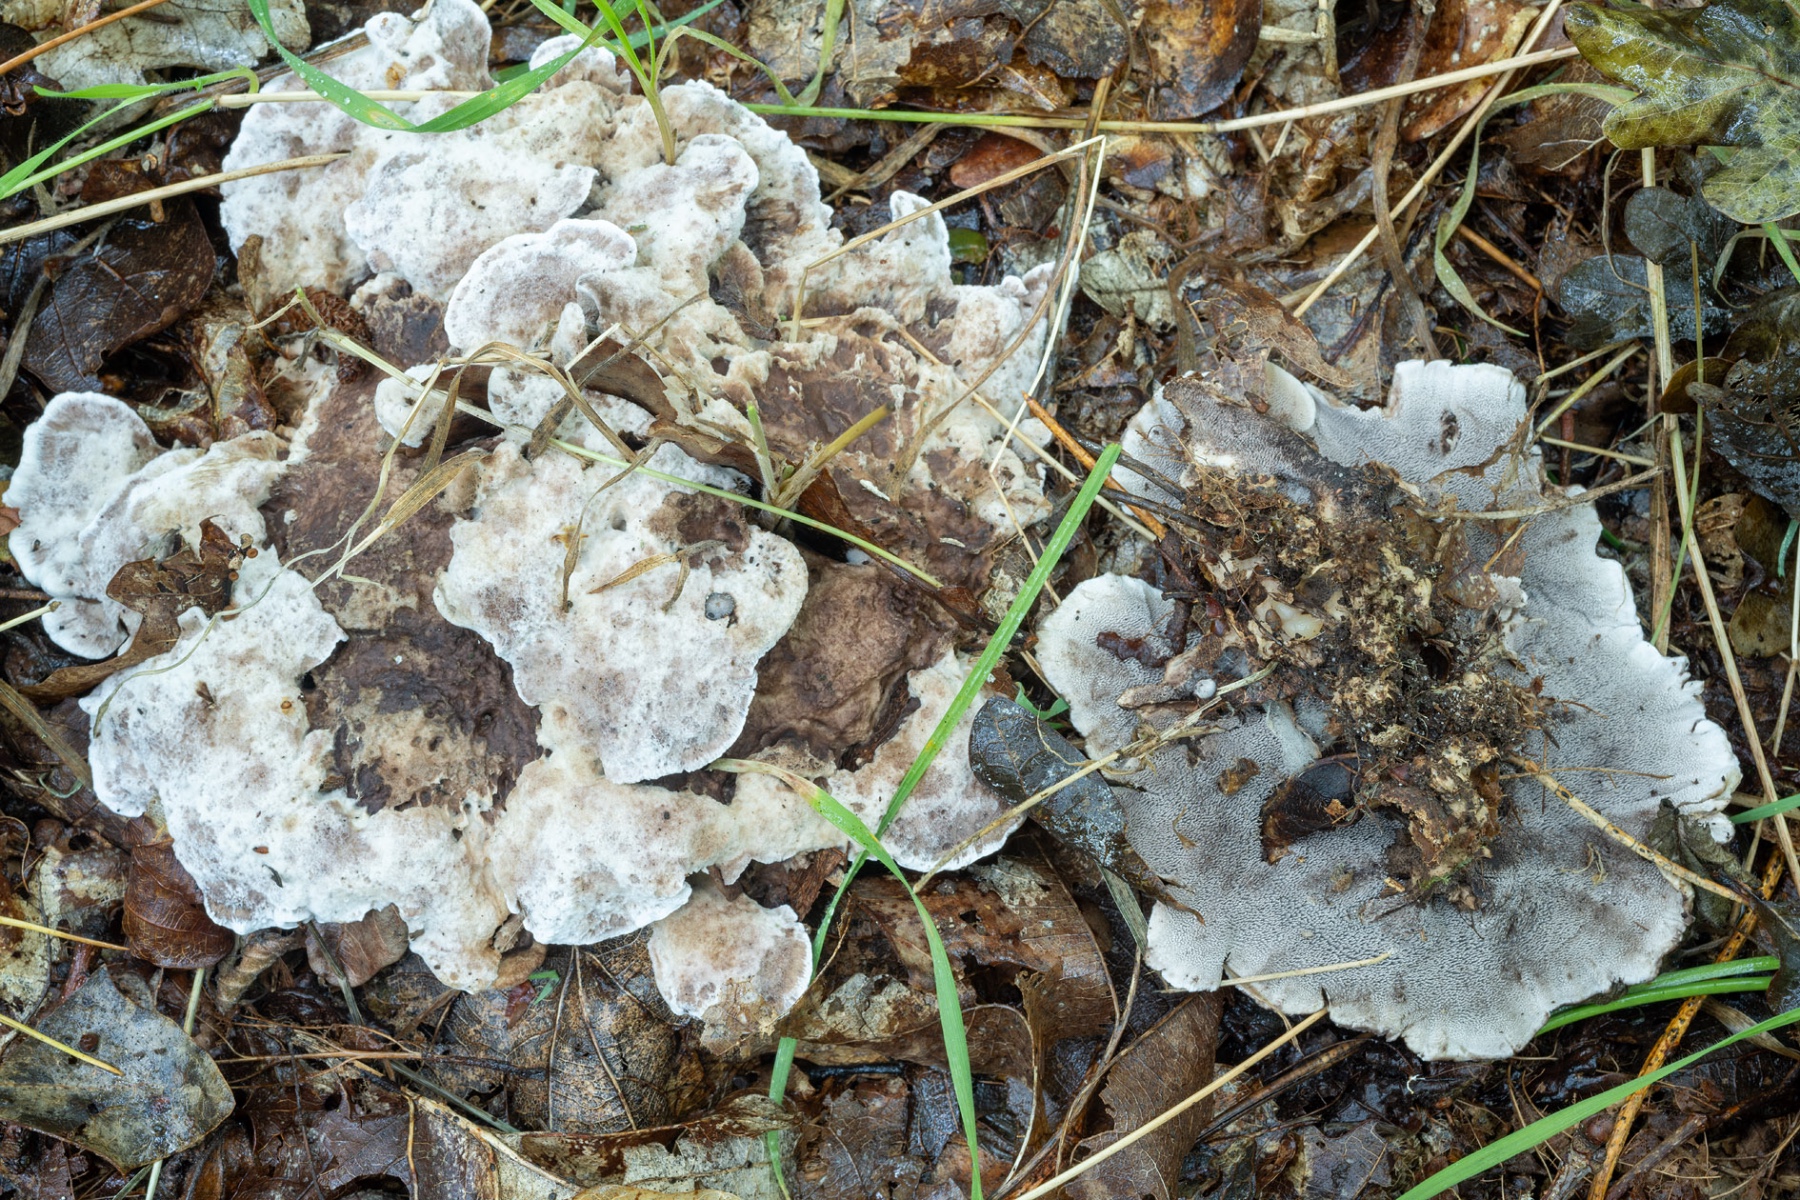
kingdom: Fungi
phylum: Basidiomycota
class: Agaricomycetes
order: Thelephorales
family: Thelephoraceae
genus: Phellodon
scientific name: Phellodon confluens
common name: pjaltet duftpigsvamp
